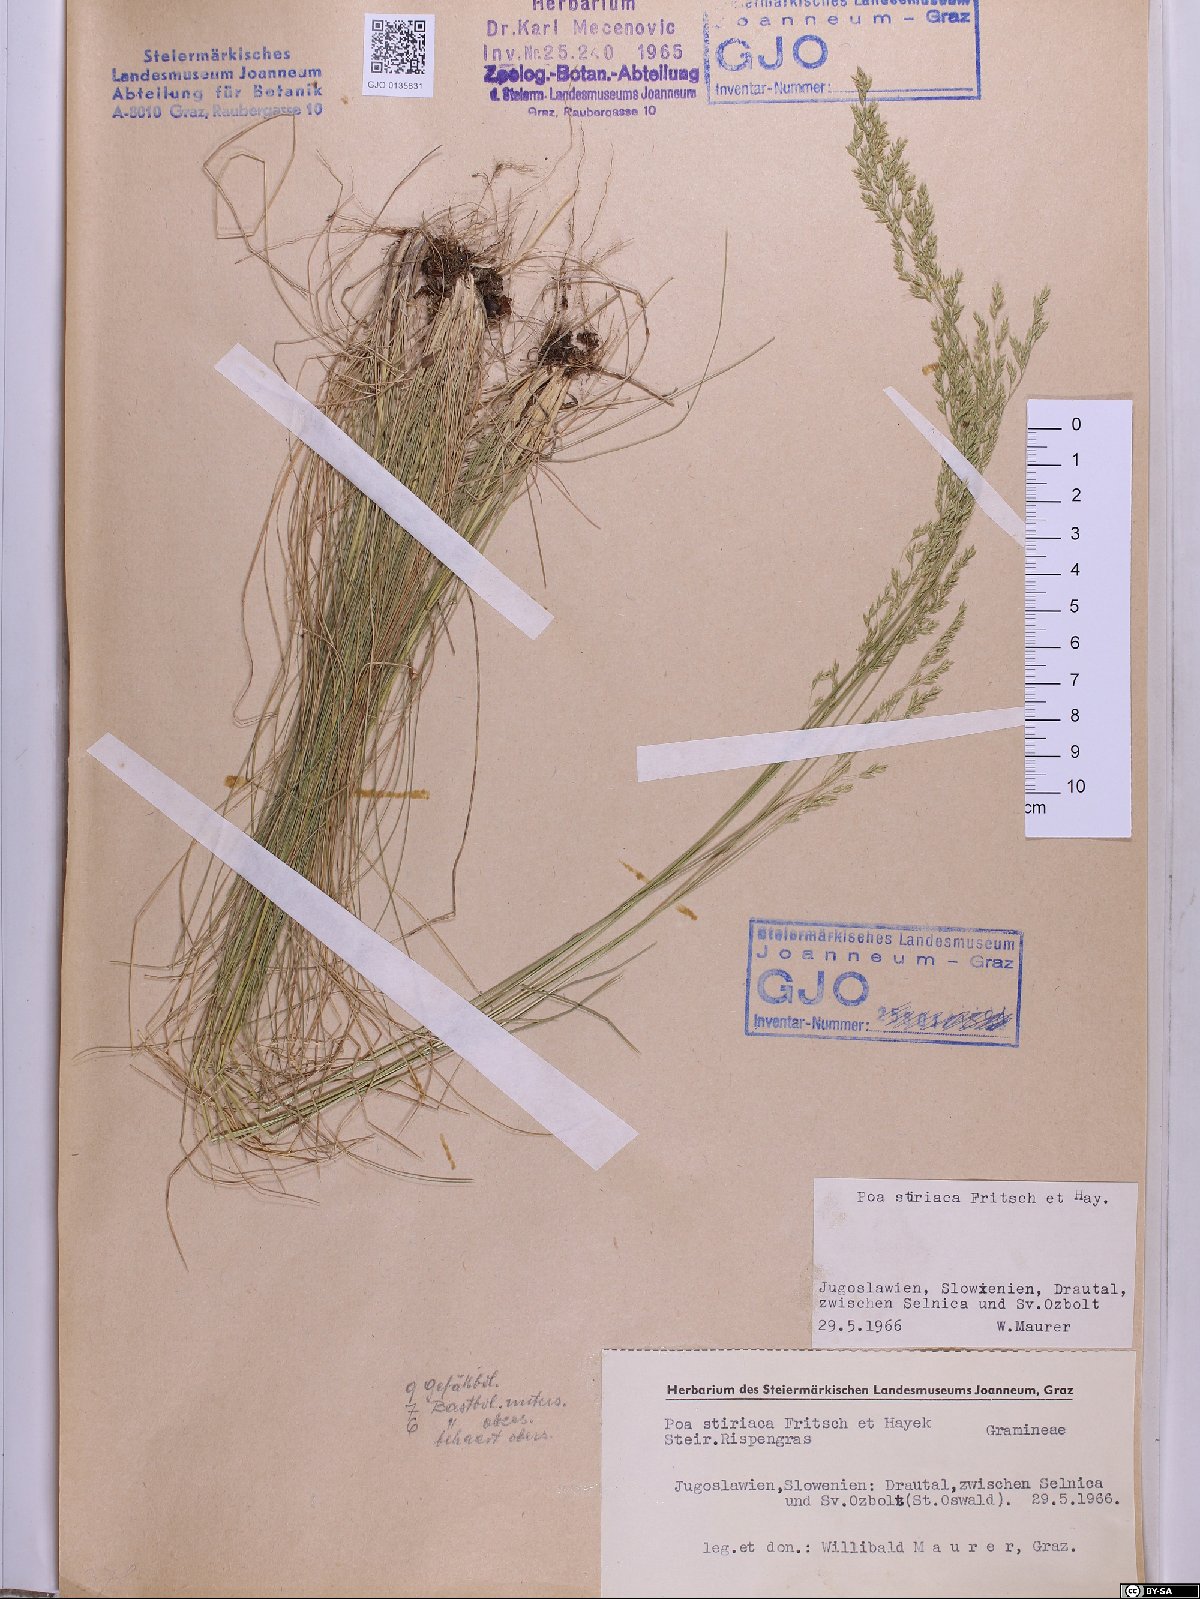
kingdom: Plantae
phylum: Tracheophyta
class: Liliopsida
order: Poales
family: Poaceae
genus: Poa
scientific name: Poa stiriaca
